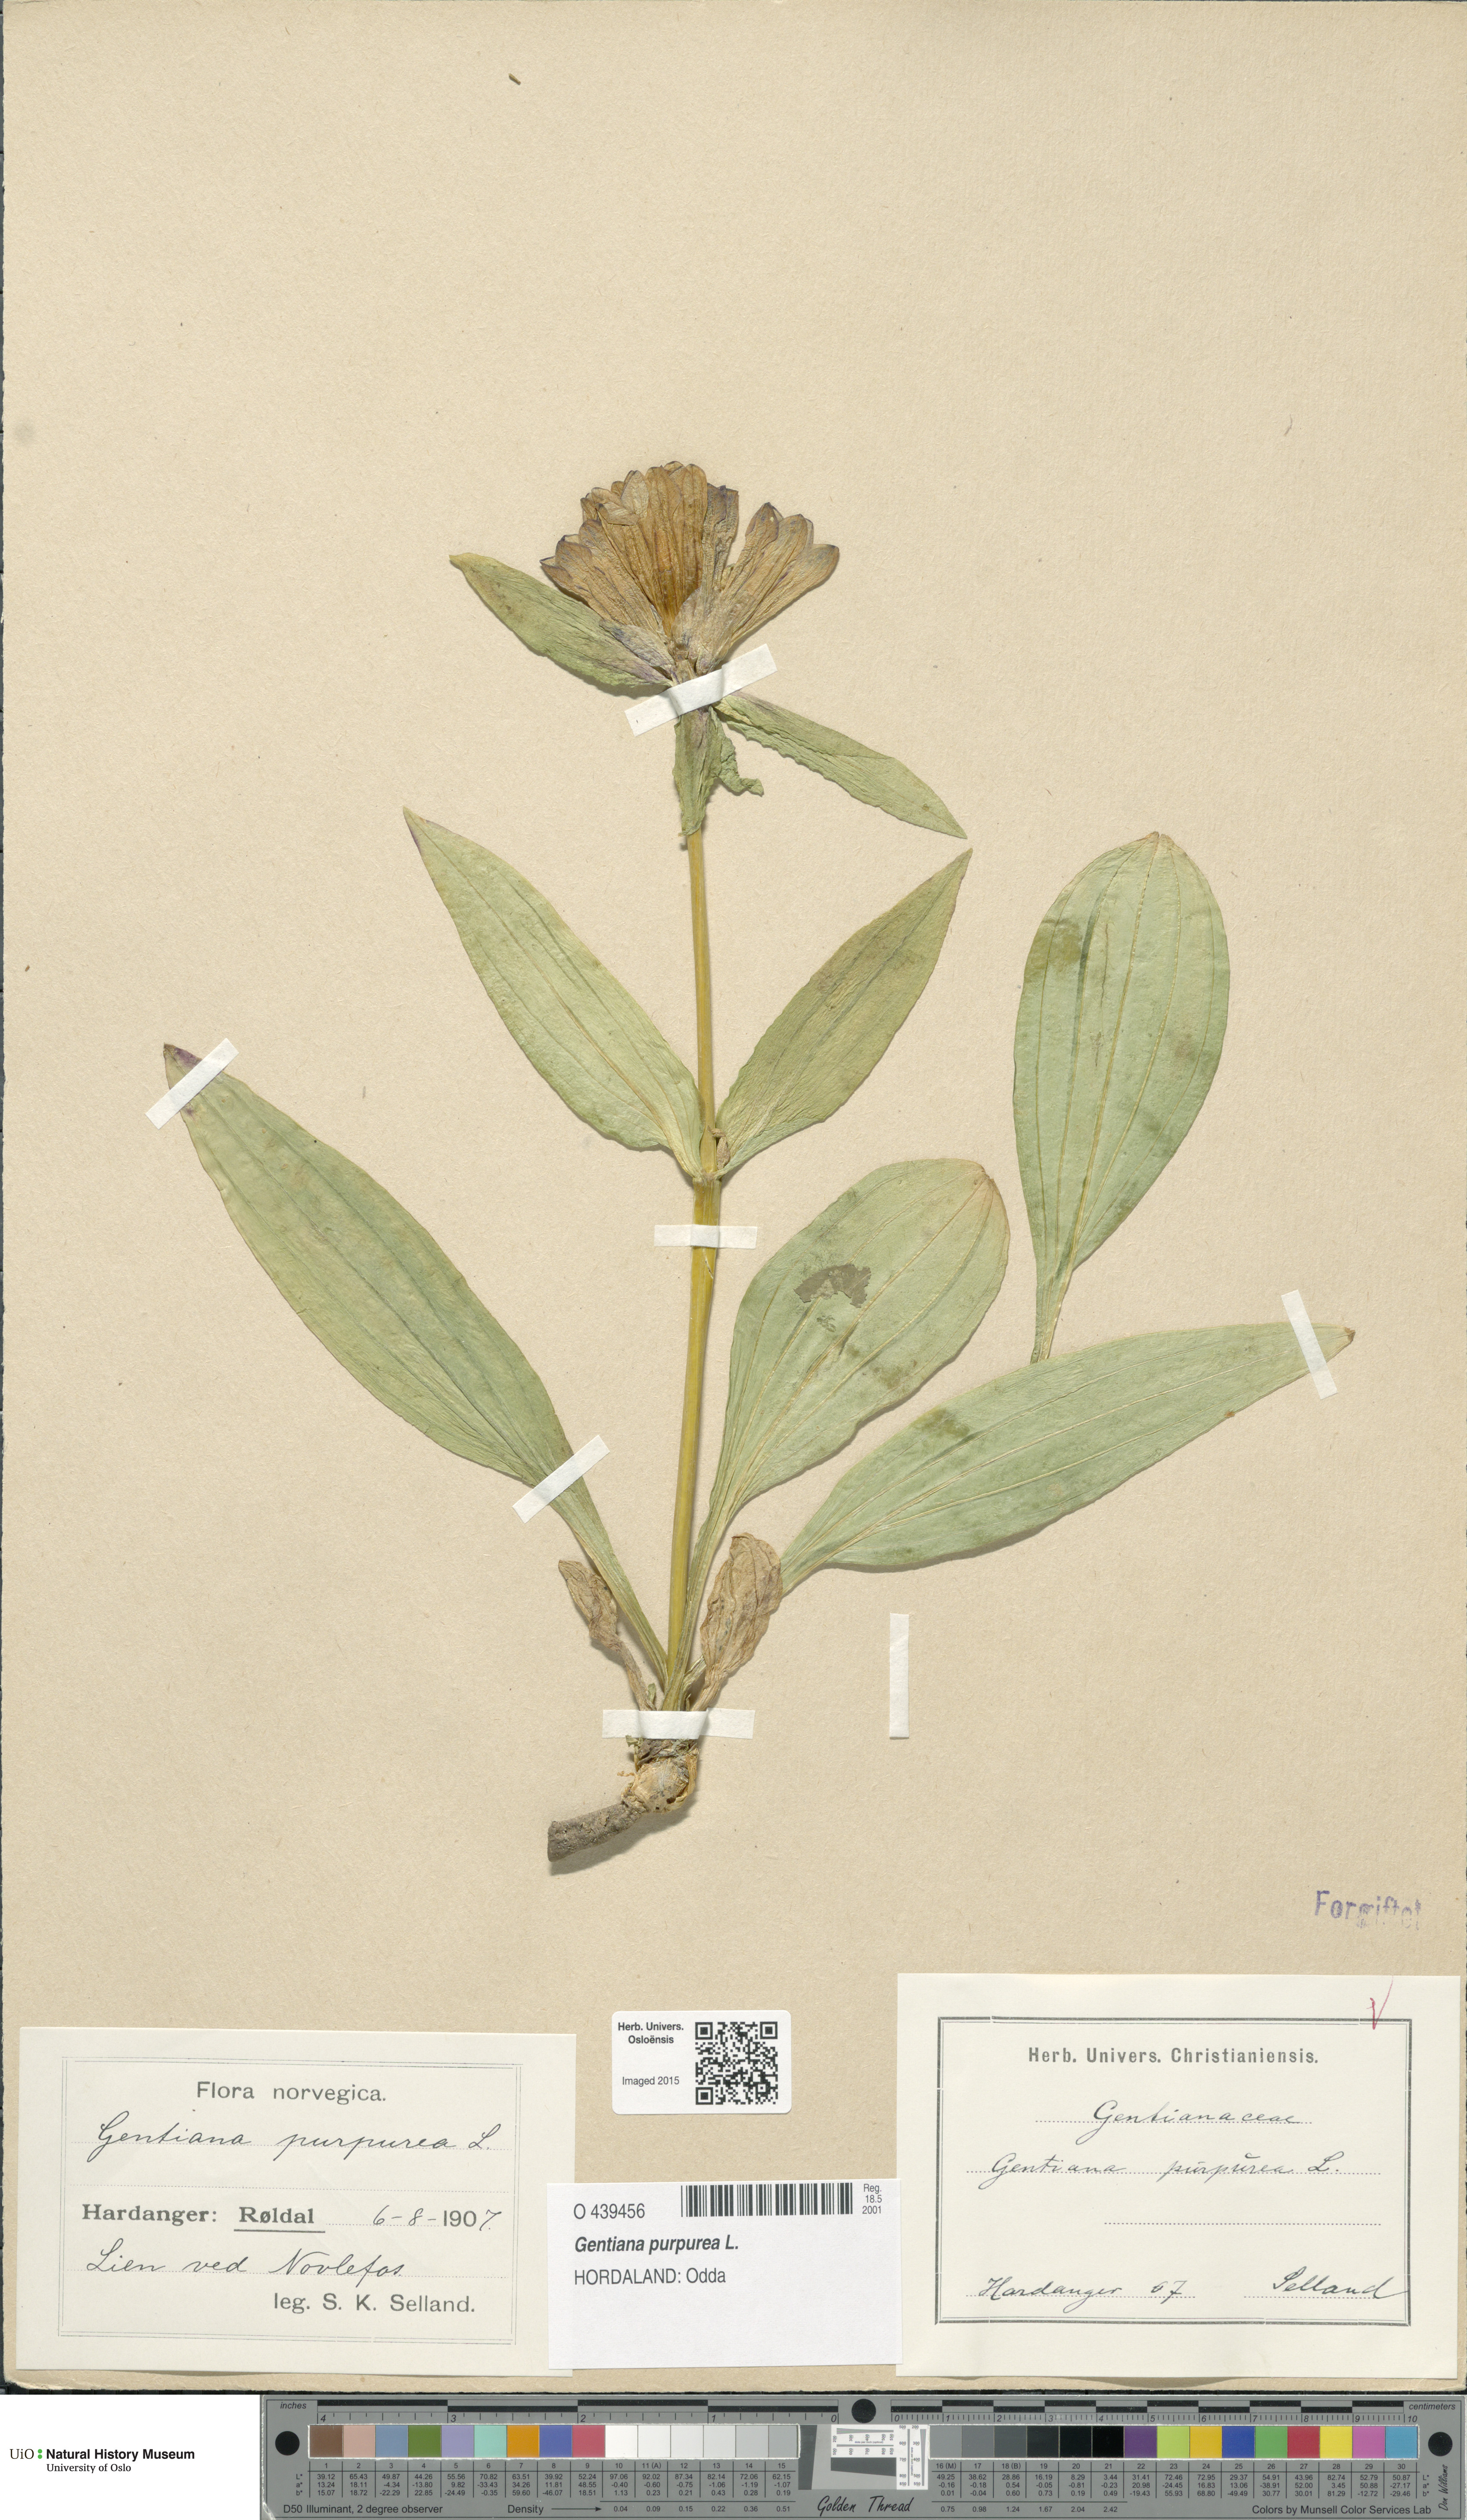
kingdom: Plantae
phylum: Tracheophyta
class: Magnoliopsida
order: Gentianales
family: Gentianaceae
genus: Gentiana
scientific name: Gentiana purpurea
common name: Purple gentian
